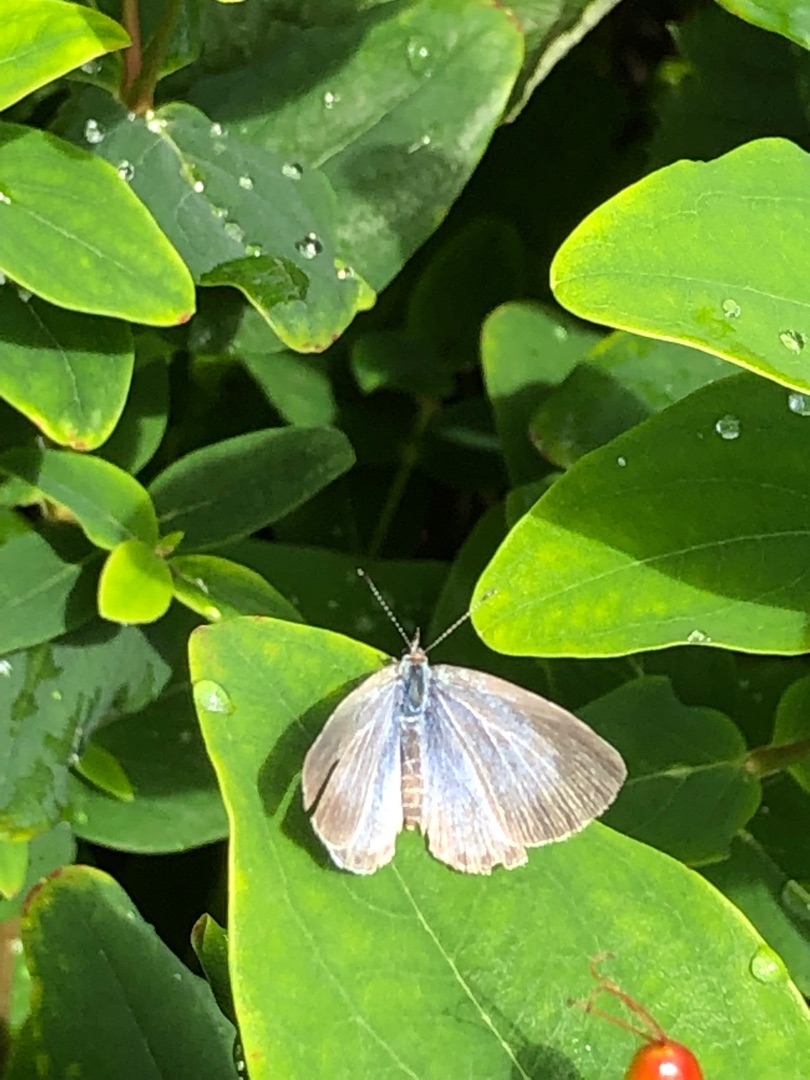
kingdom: Animalia
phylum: Arthropoda
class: Insecta
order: Lepidoptera
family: Lycaenidae
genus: Celastrina
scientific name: Celastrina argiolus
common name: Skovblåfugl
